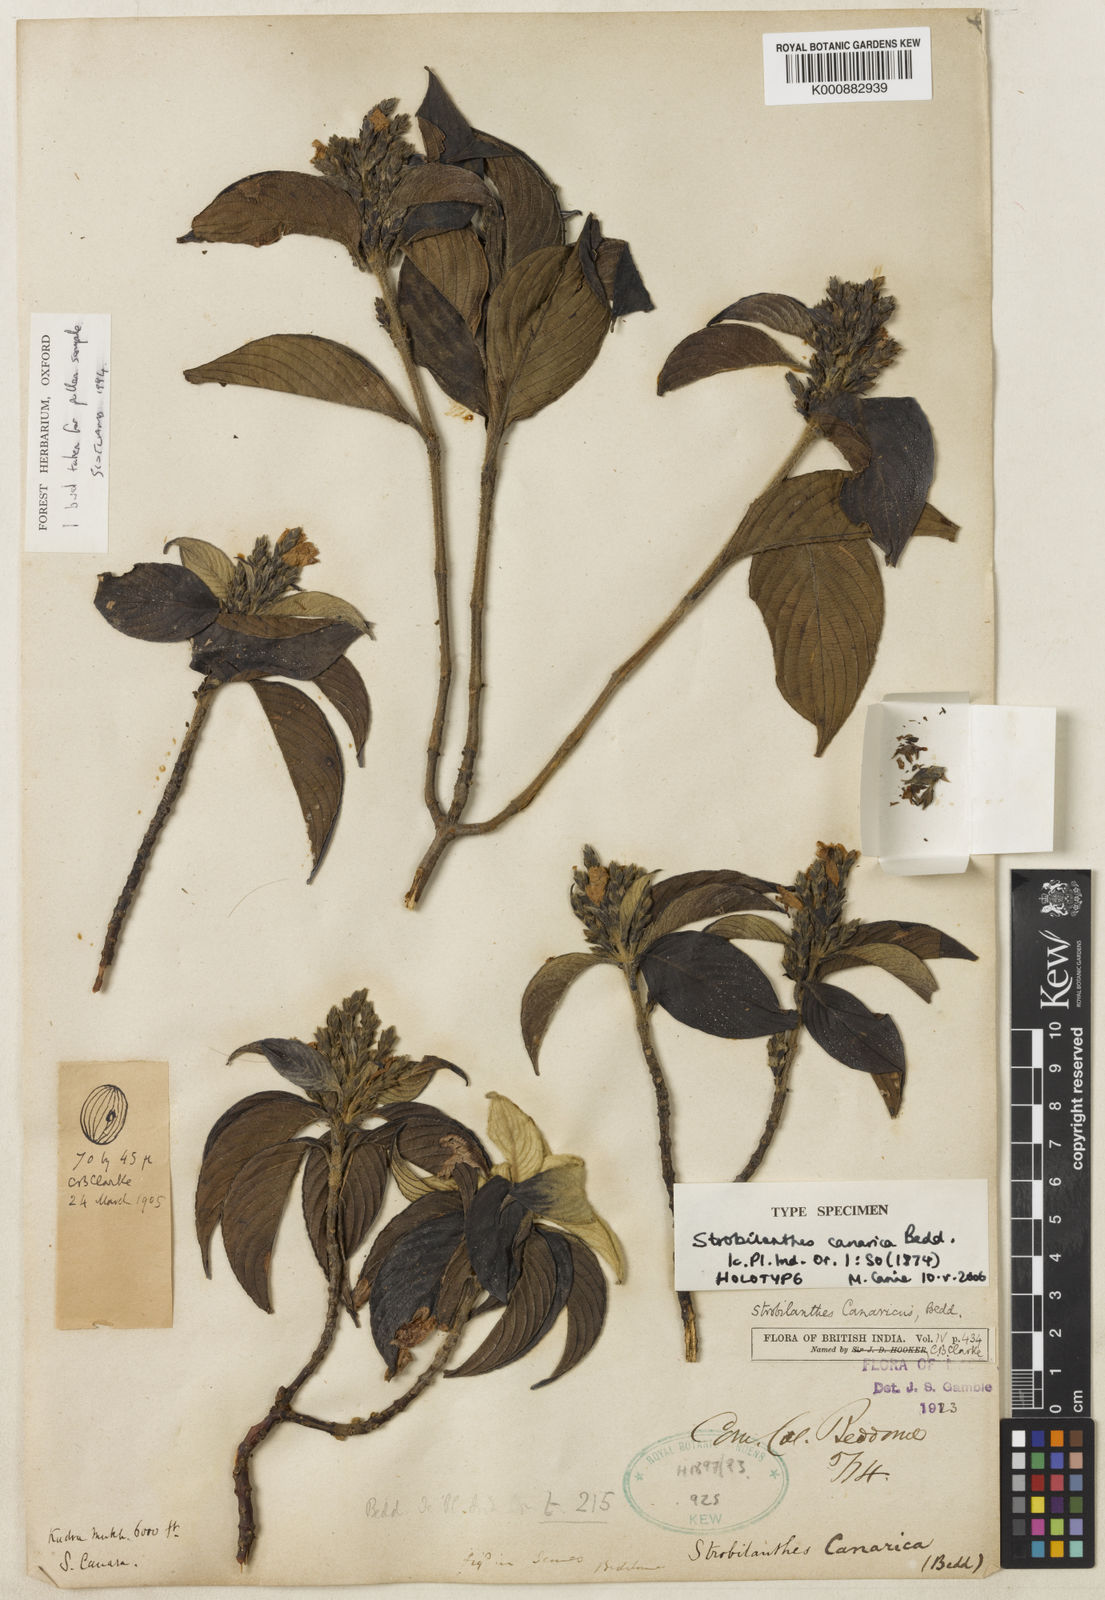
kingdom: Plantae
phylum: Tracheophyta
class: Magnoliopsida
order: Lamiales
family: Acanthaceae
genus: Strobilanthes
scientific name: Strobilanthes canarica
